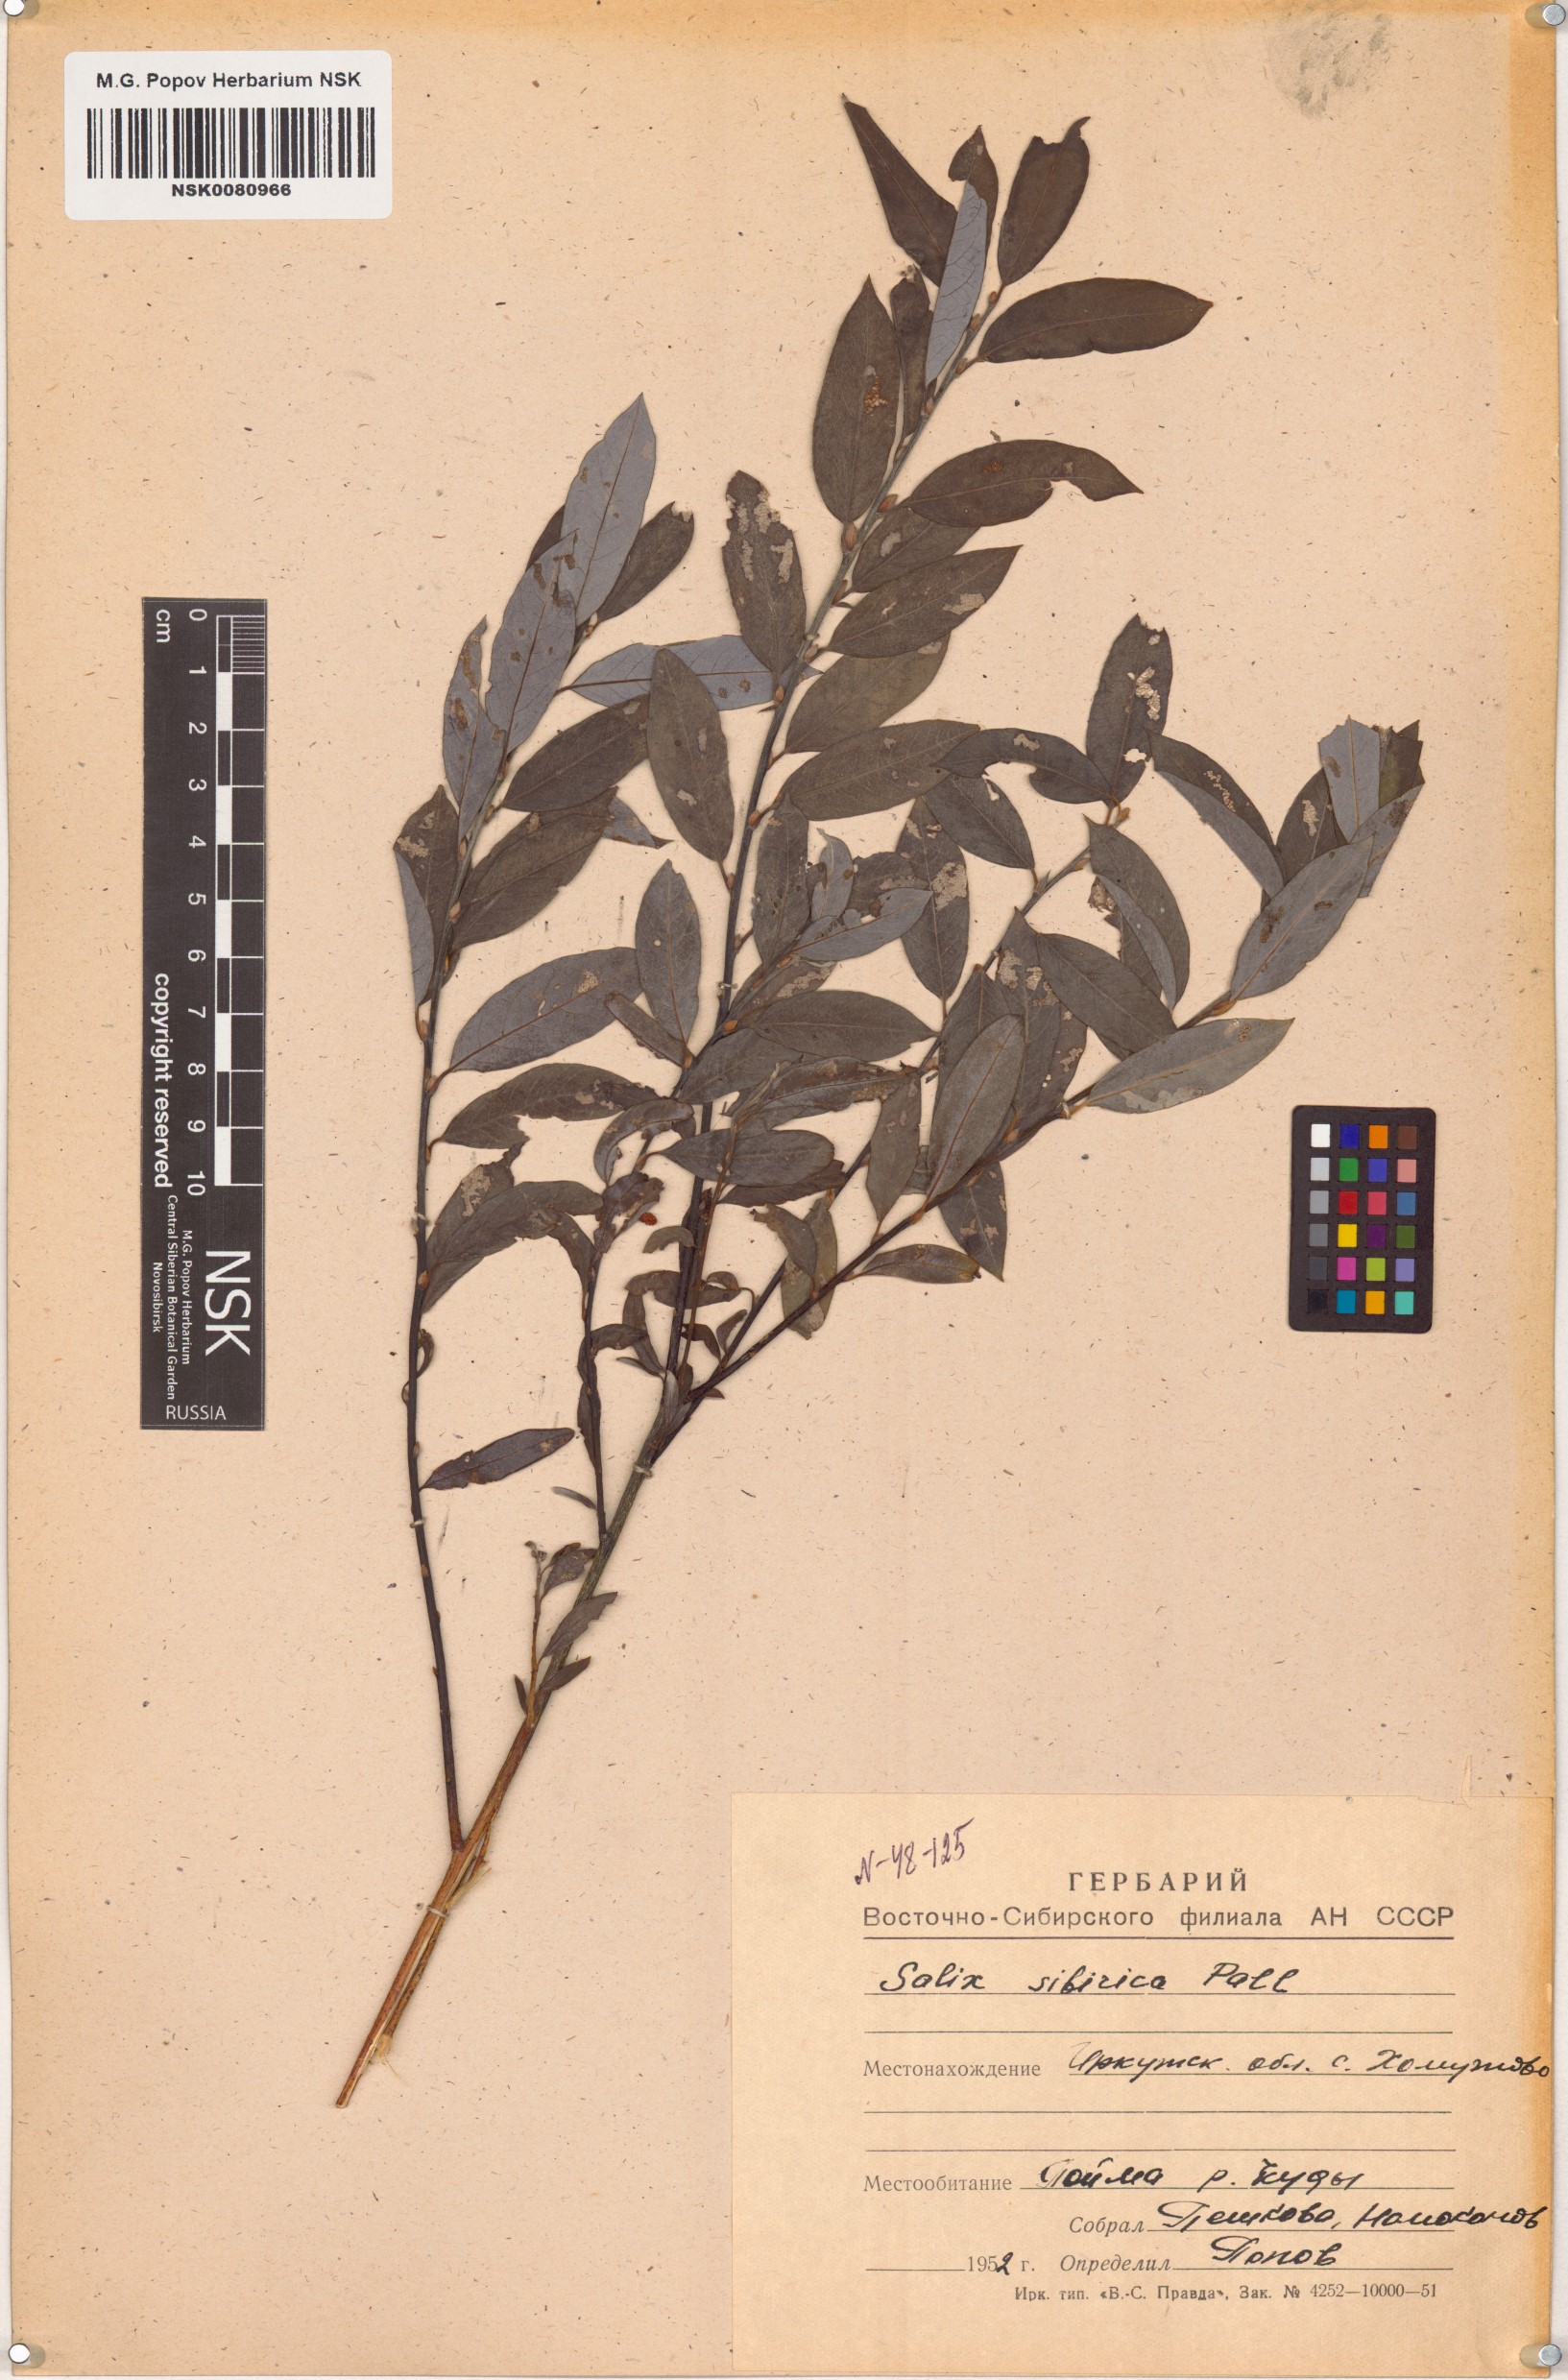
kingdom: Plantae
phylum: Tracheophyta
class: Magnoliopsida
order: Malpighiales
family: Salicaceae
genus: Salix
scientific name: Salix rosmarinifolia
